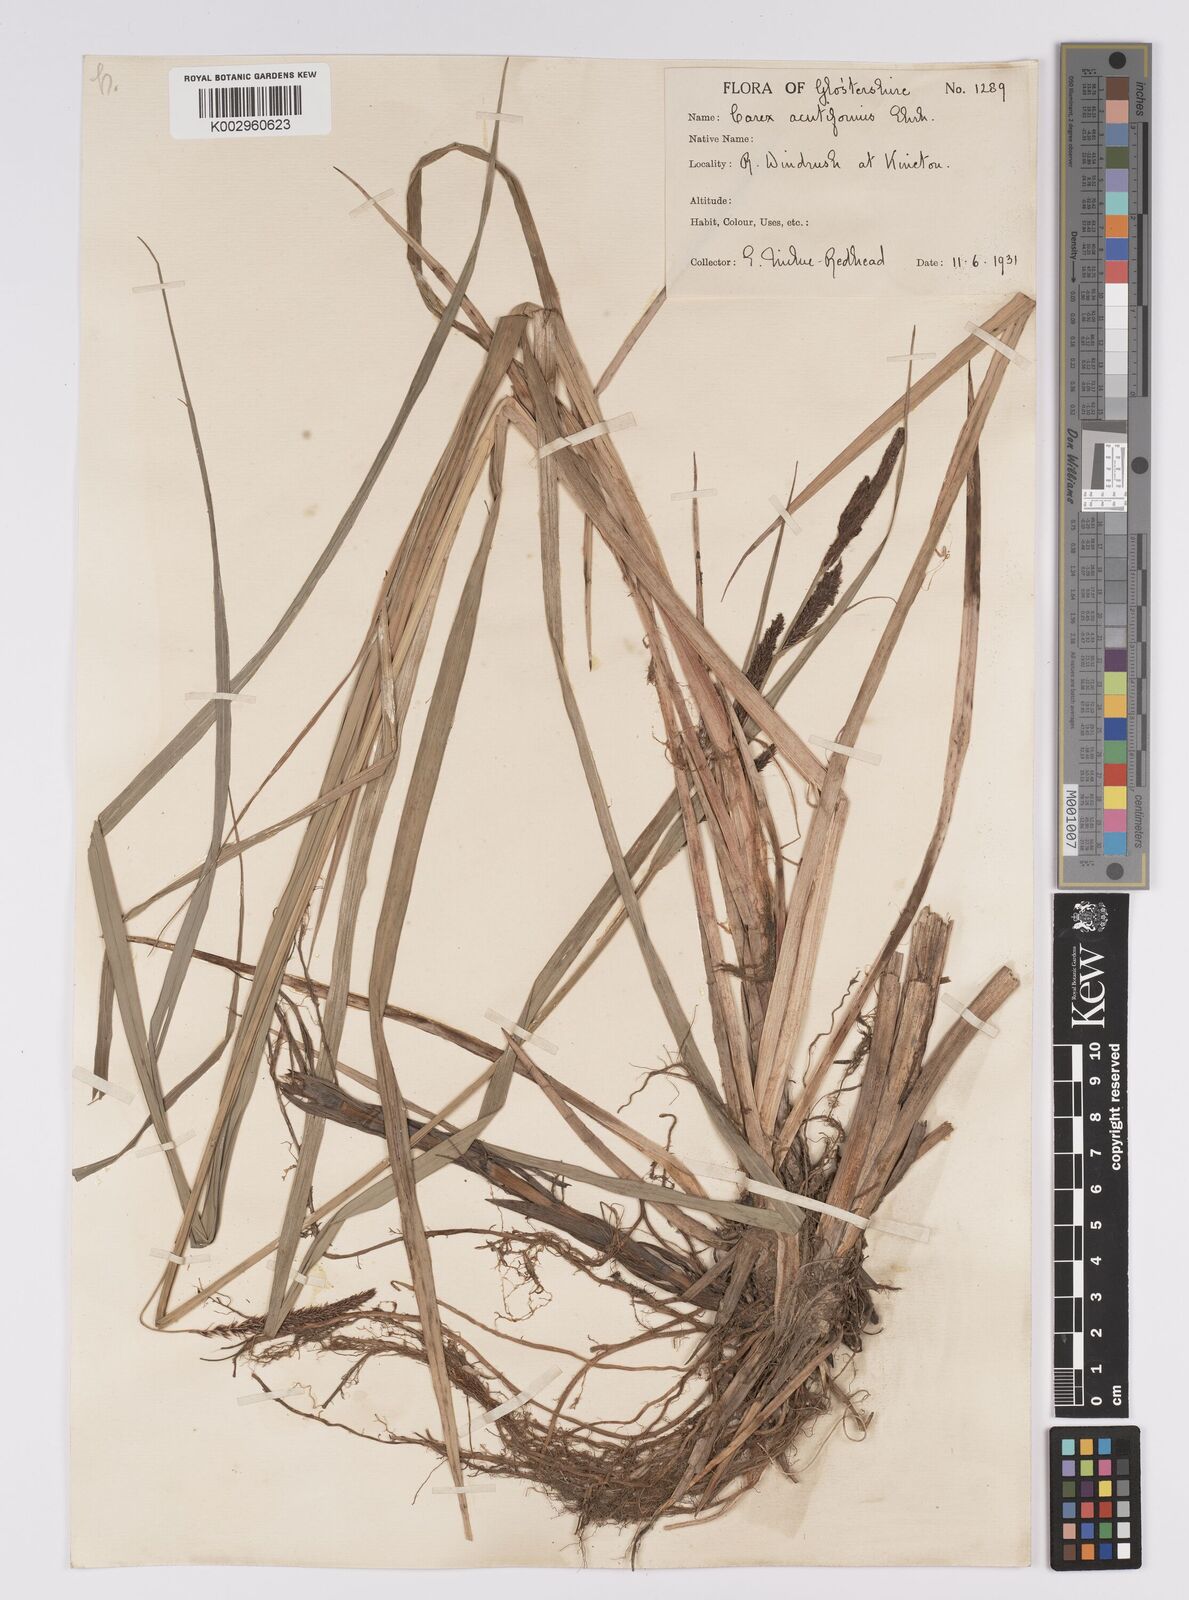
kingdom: Plantae
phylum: Tracheophyta
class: Liliopsida
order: Poales
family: Cyperaceae
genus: Carex
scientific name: Carex acutiformis
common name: Lesser pond-sedge
